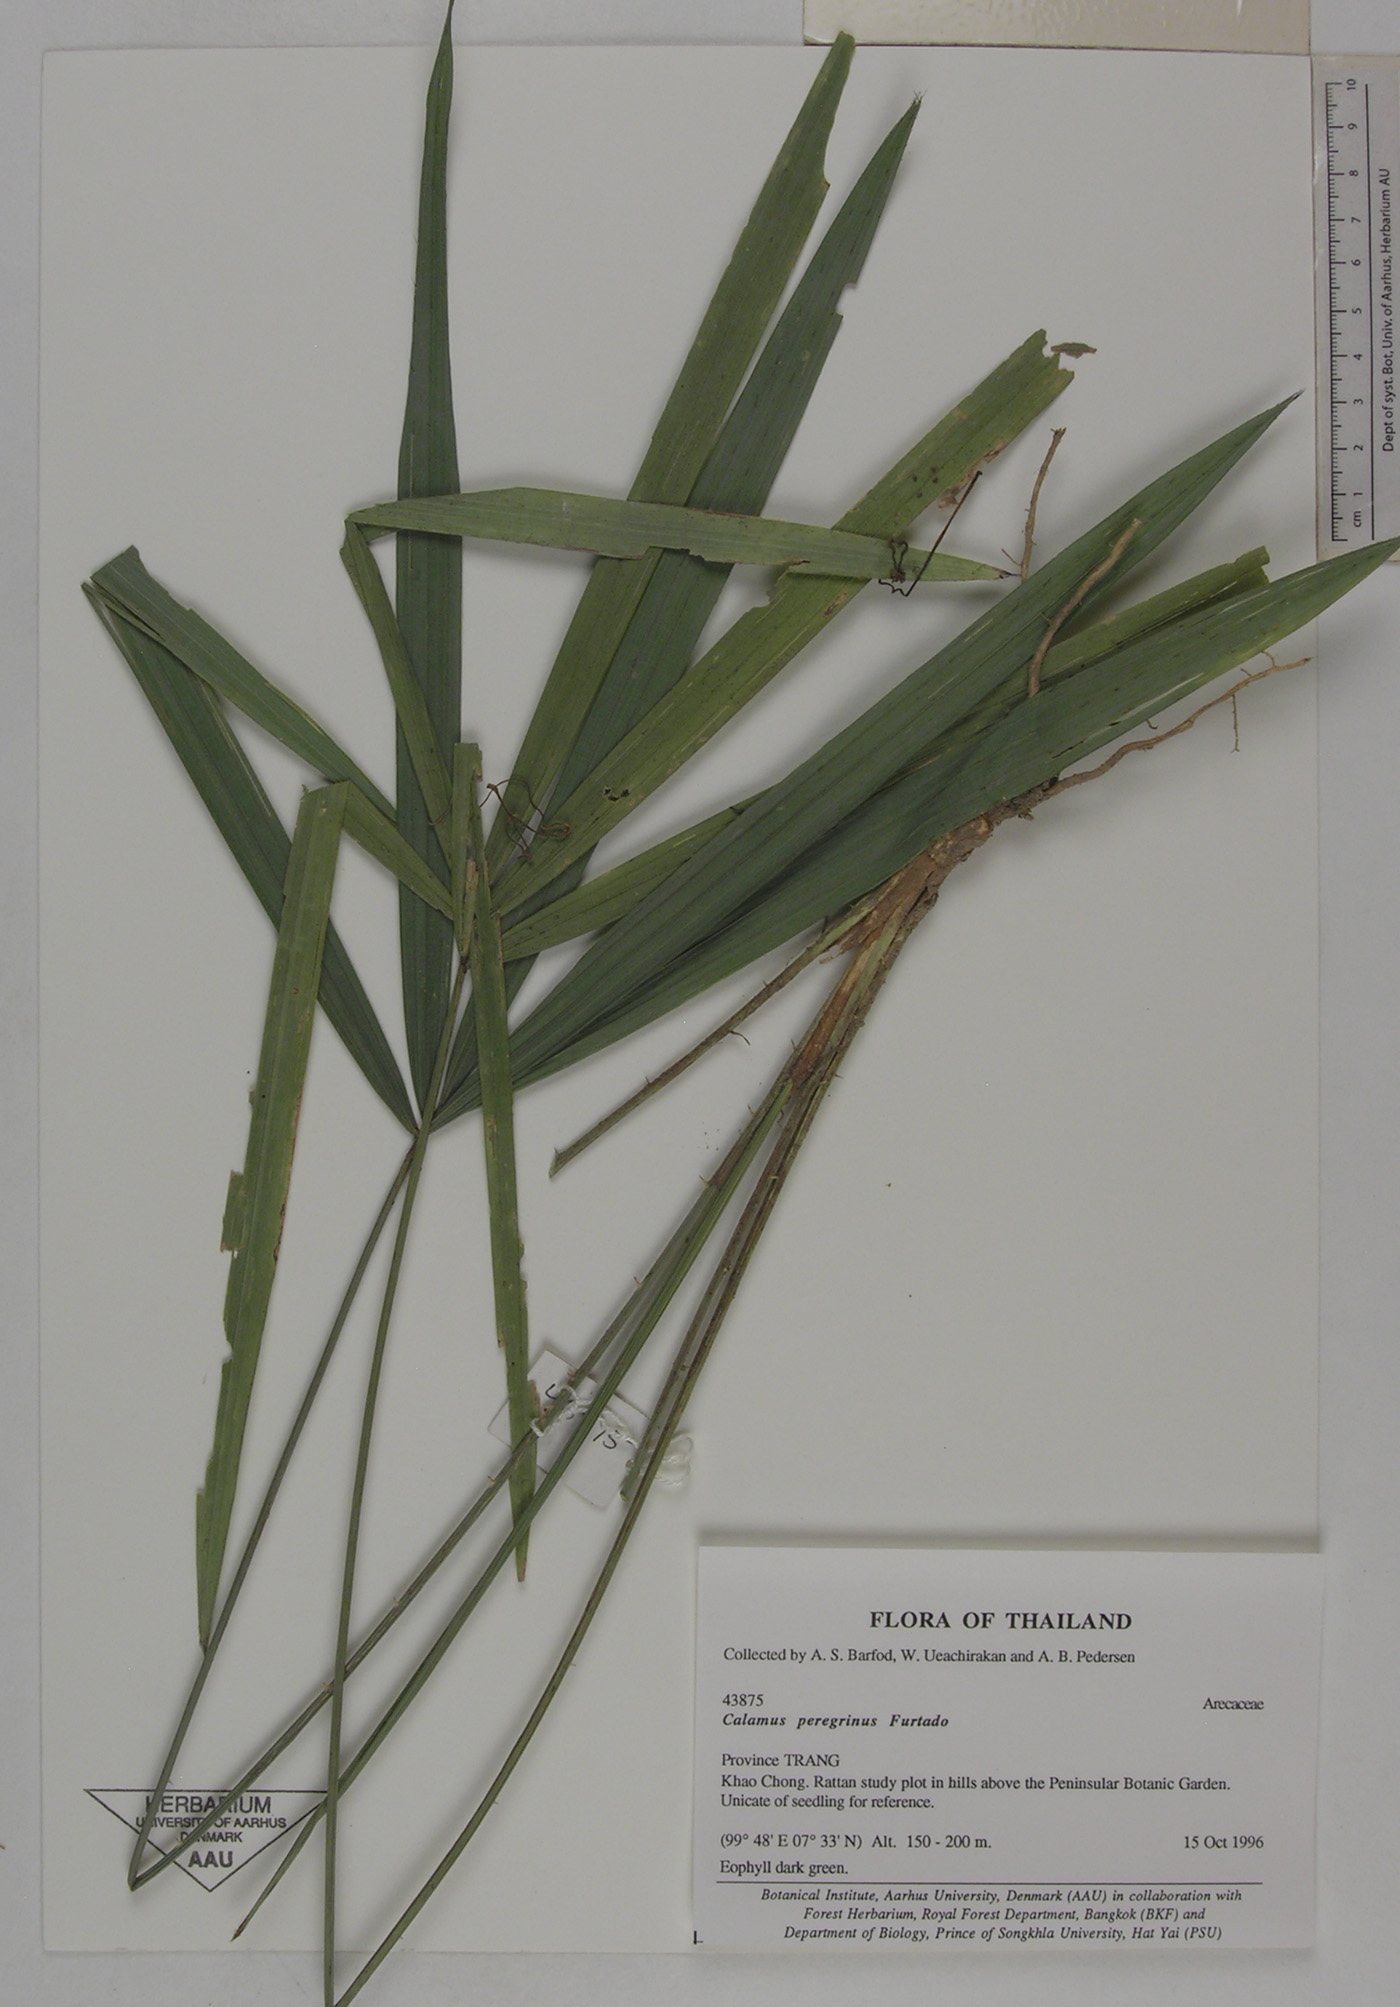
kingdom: Plantae
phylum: Tracheophyta
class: Liliopsida
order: Arecales
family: Arecaceae
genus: Calamus
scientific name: Calamus peregrinus
